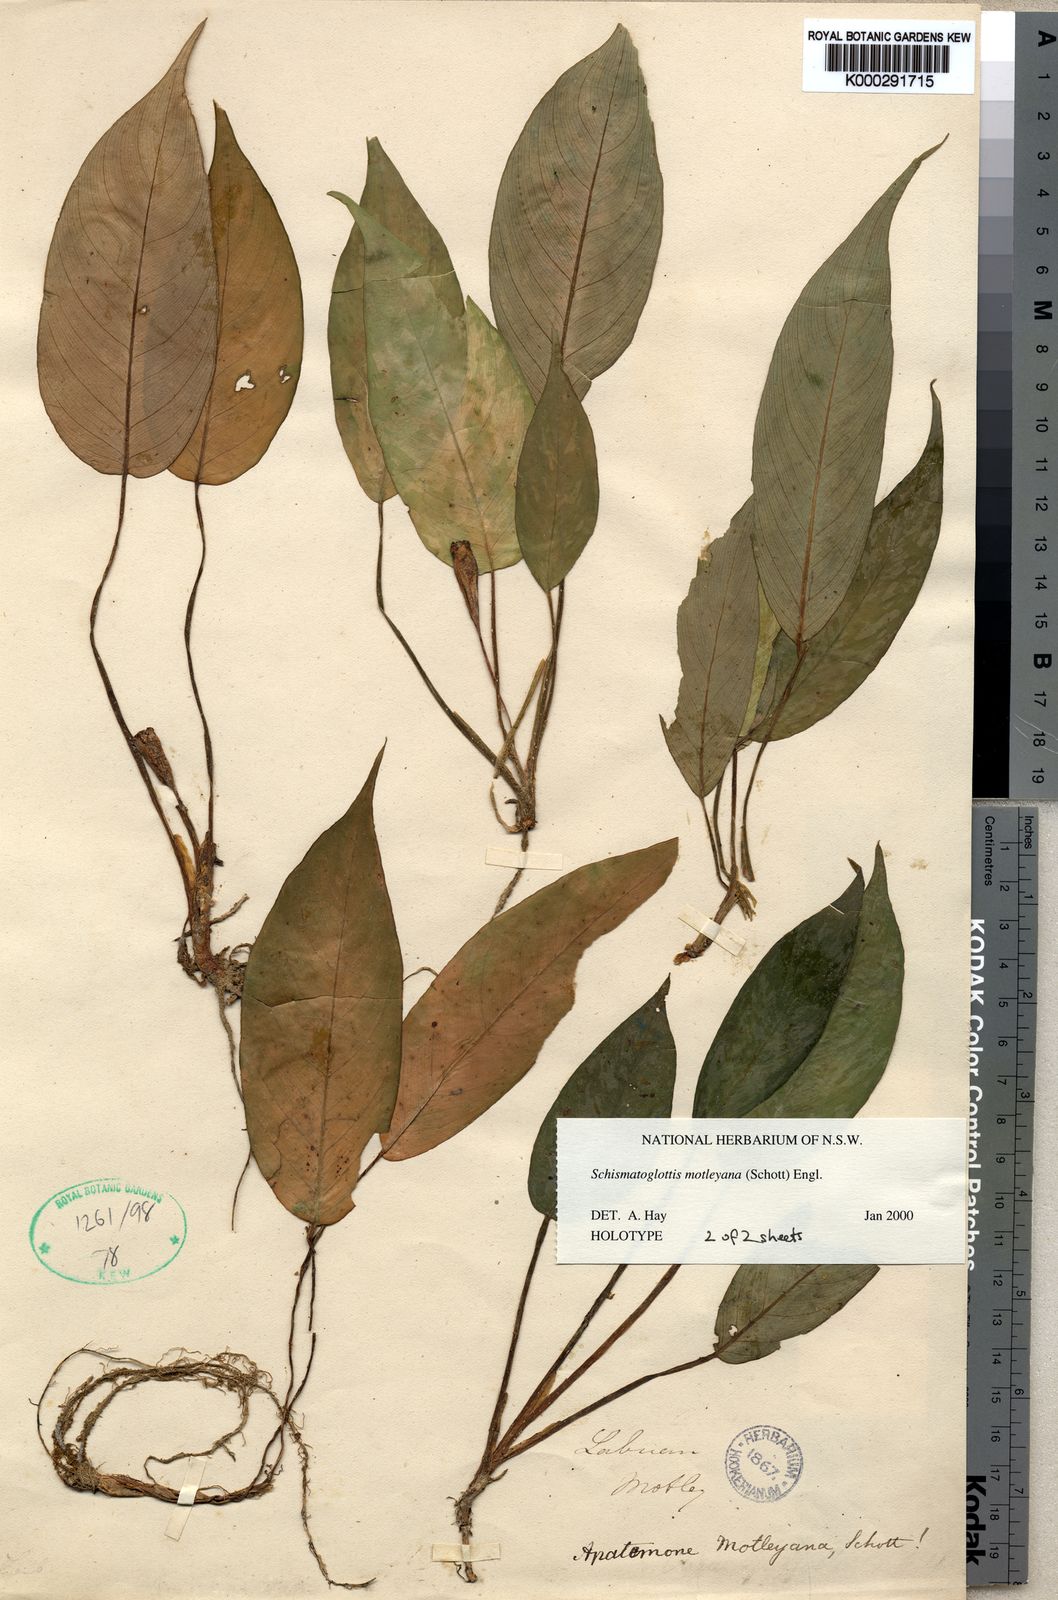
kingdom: Plantae
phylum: Tracheophyta
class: Liliopsida
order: Alismatales
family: Araceae
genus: Schismatoglottis
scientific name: Schismatoglottis motleyana
